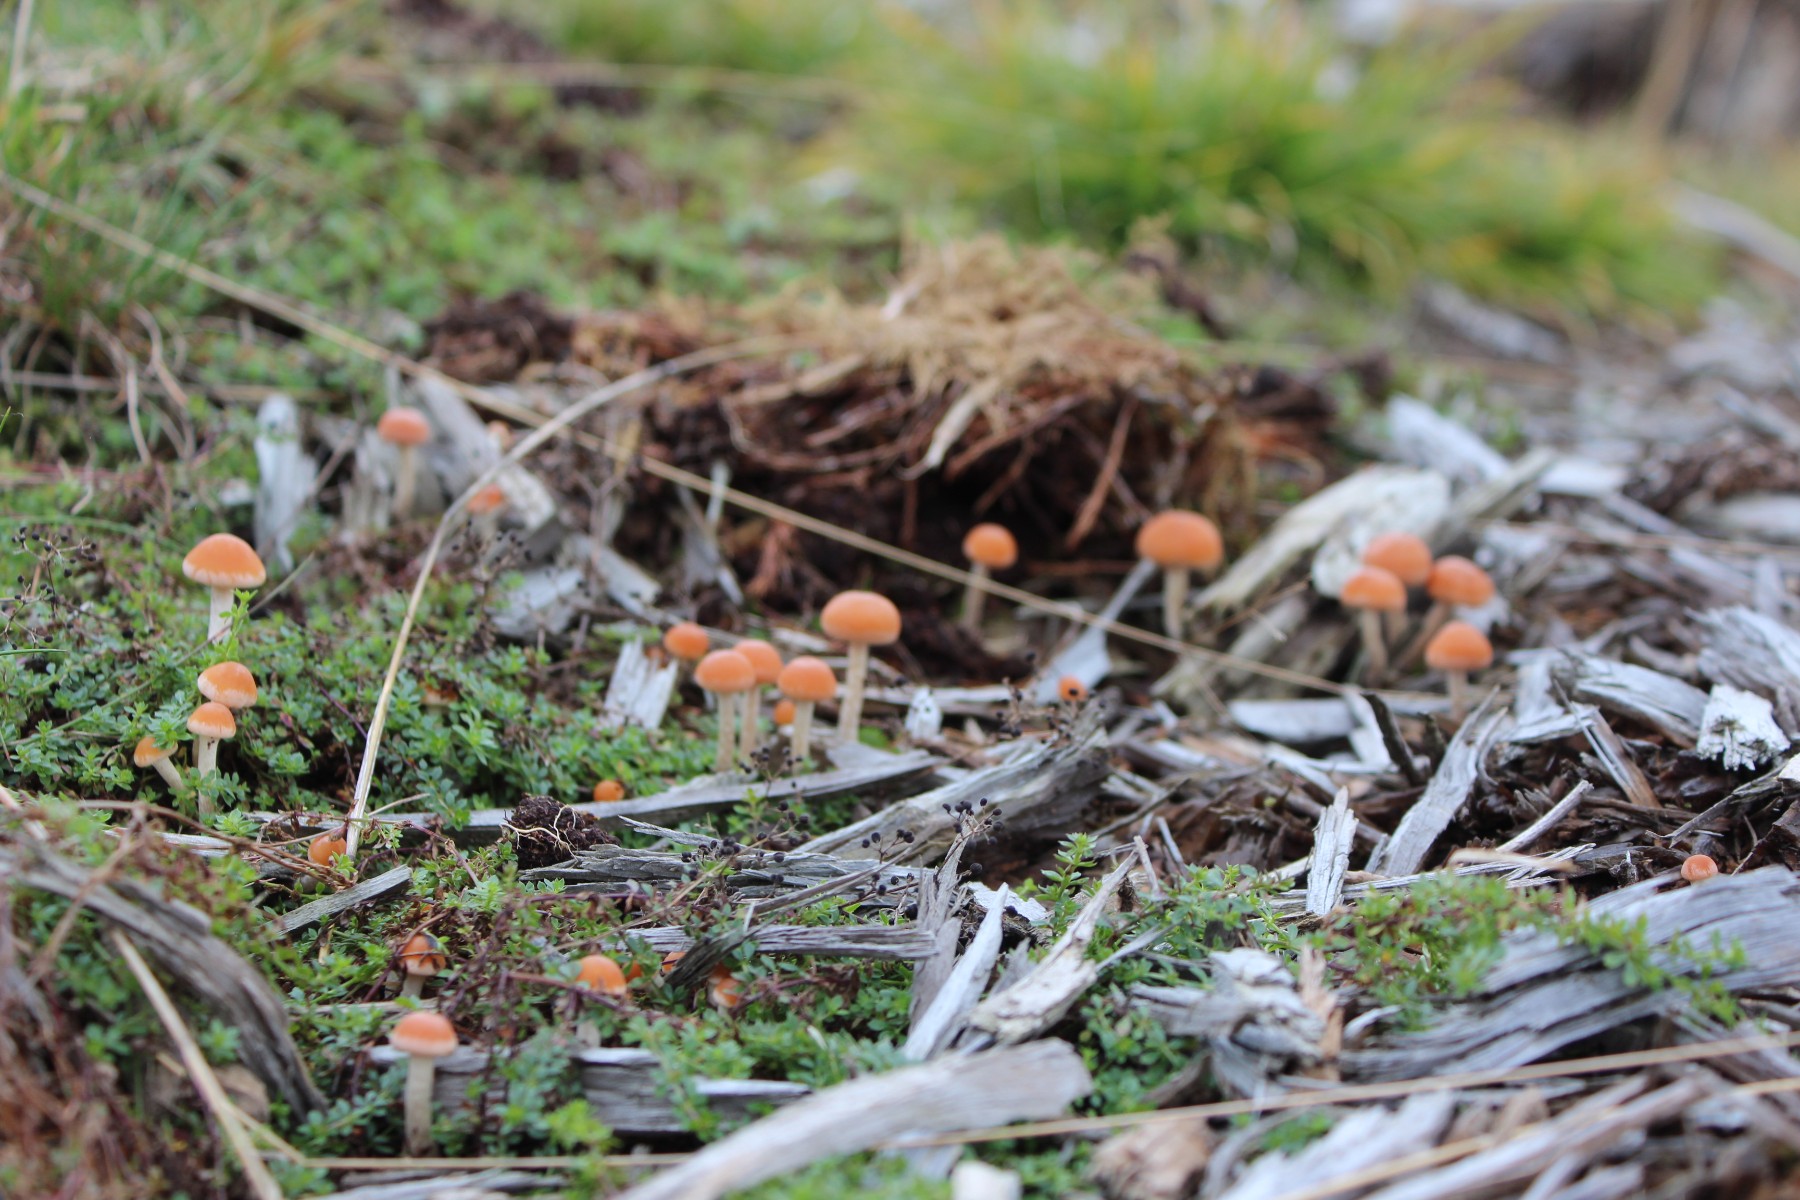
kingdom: Fungi
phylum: Basidiomycota
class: Agaricomycetes
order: Agaricales
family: Strophariaceae
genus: Hypholoma
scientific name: Hypholoma marginatum
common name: enlig svovlhat
